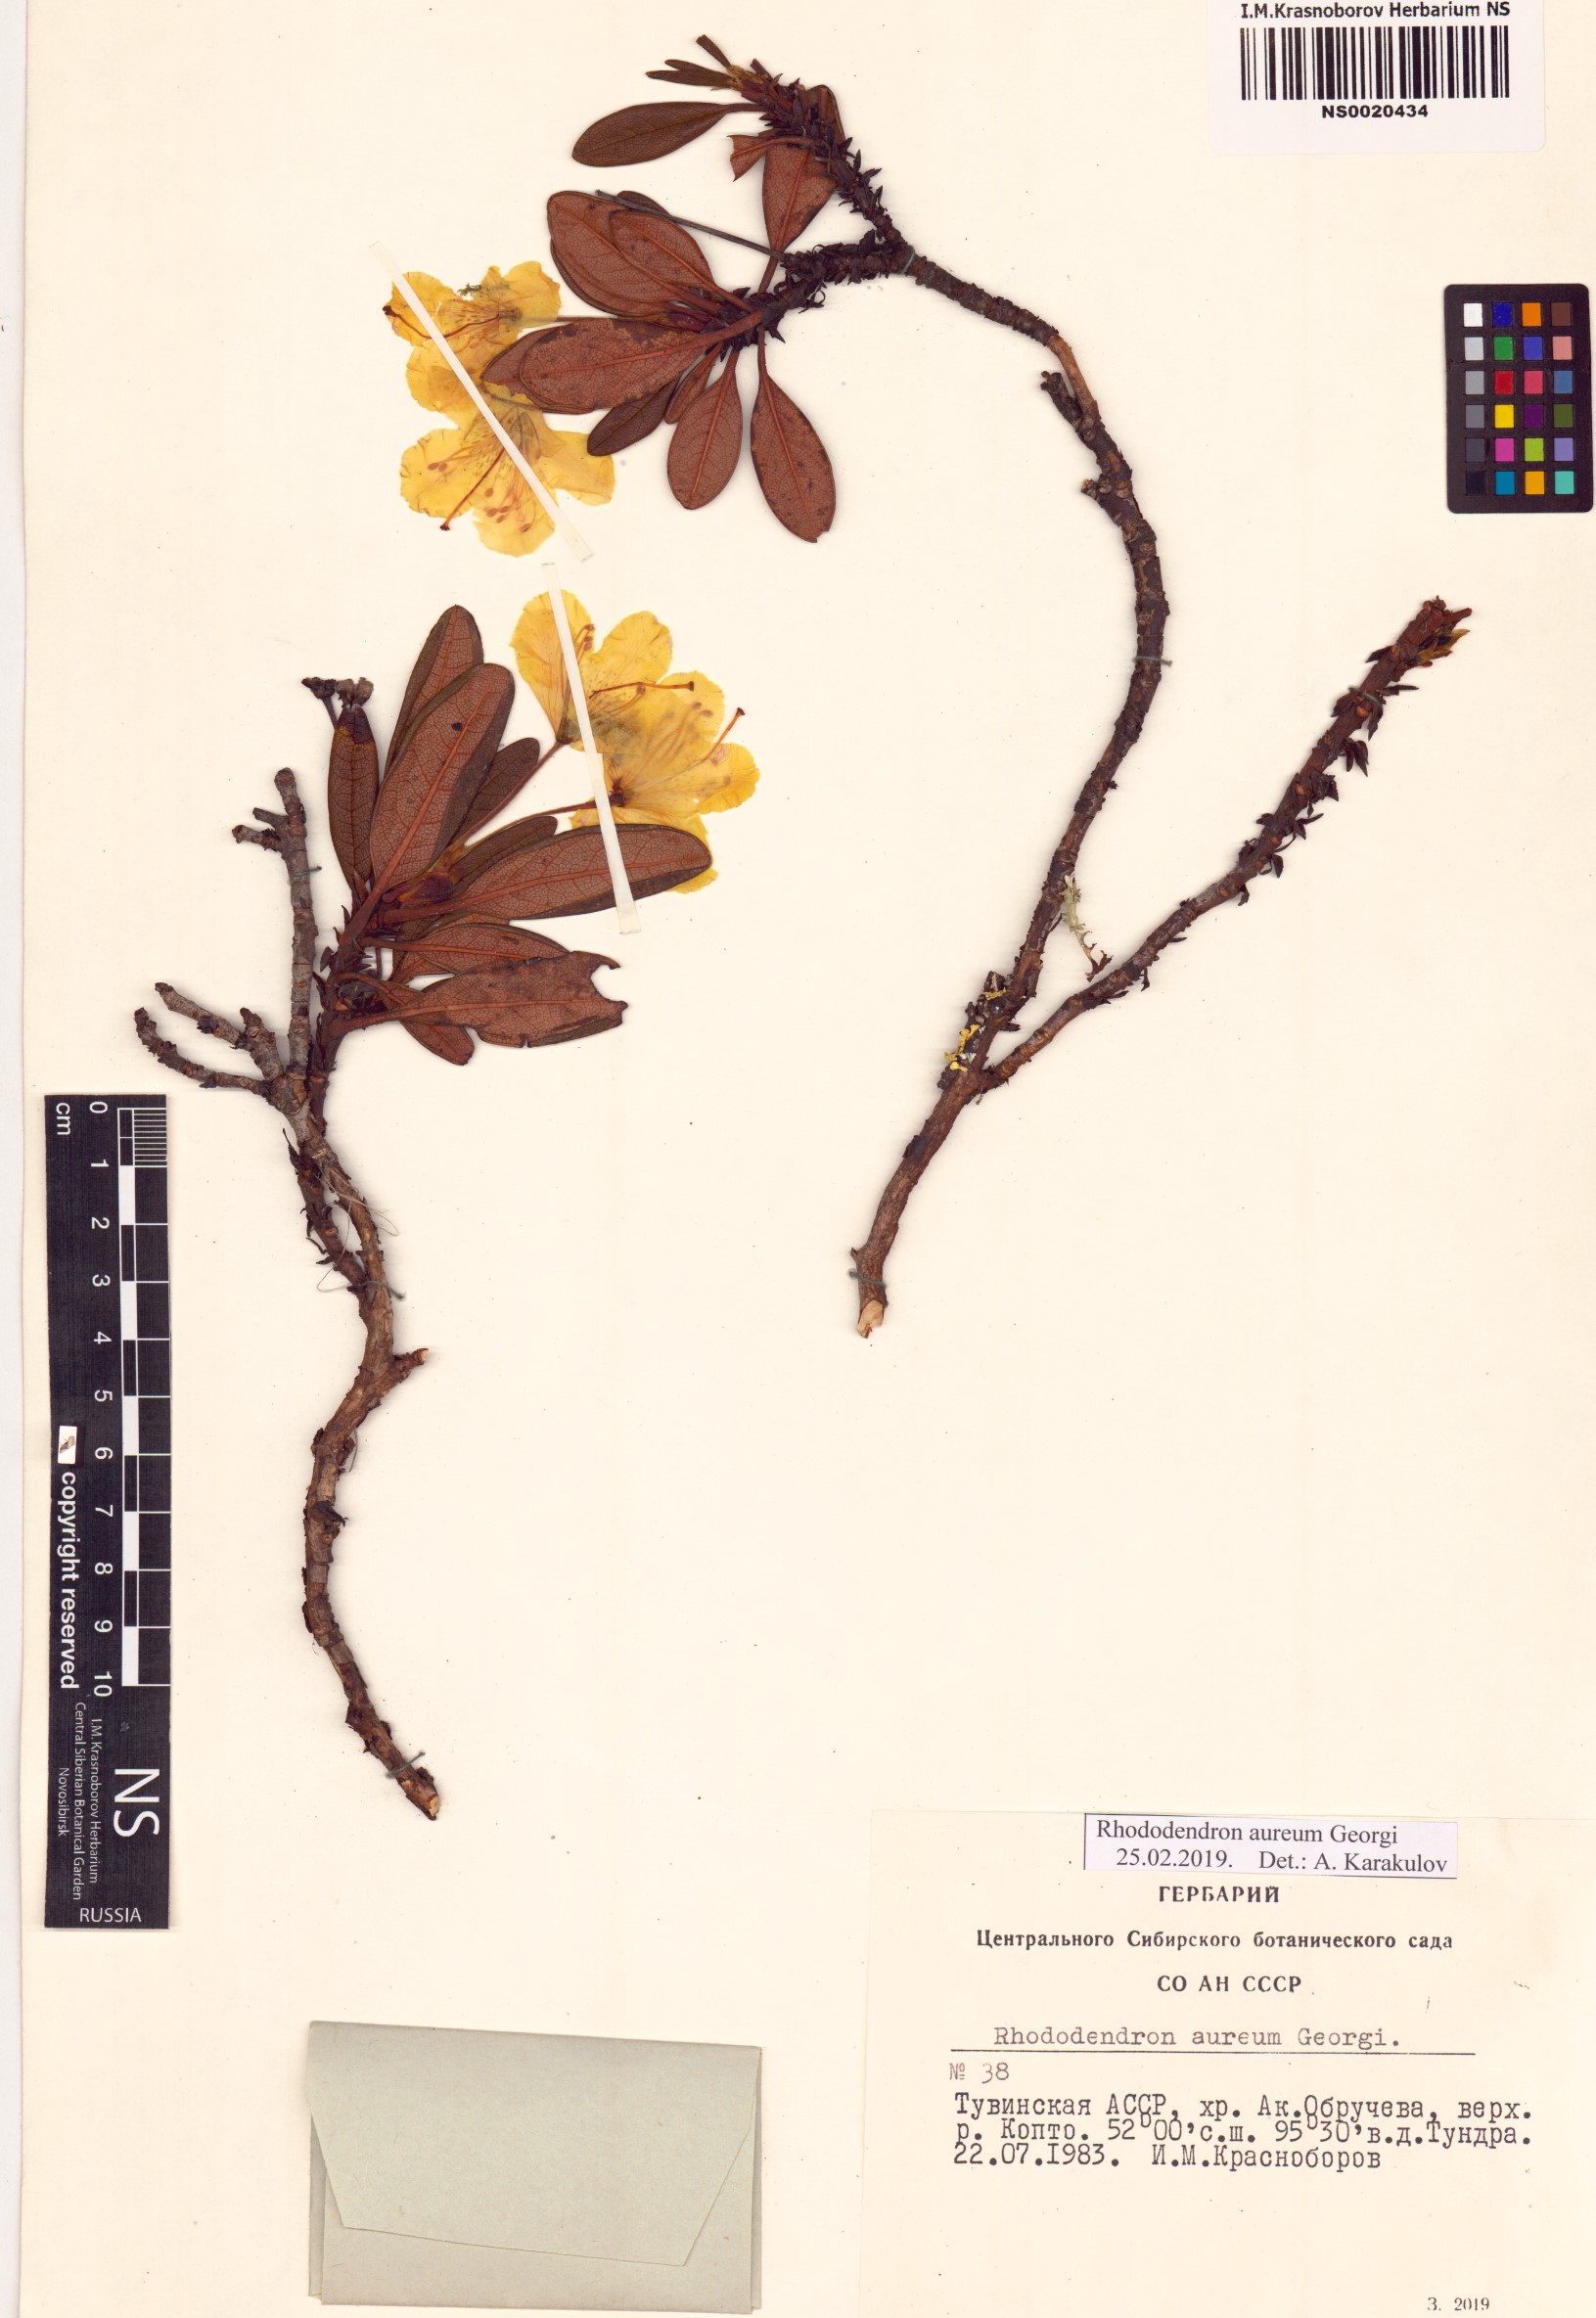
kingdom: Plantae
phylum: Tracheophyta
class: Magnoliopsida
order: Ericales
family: Ericaceae
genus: Rhododendron
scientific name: Rhododendron aureum
